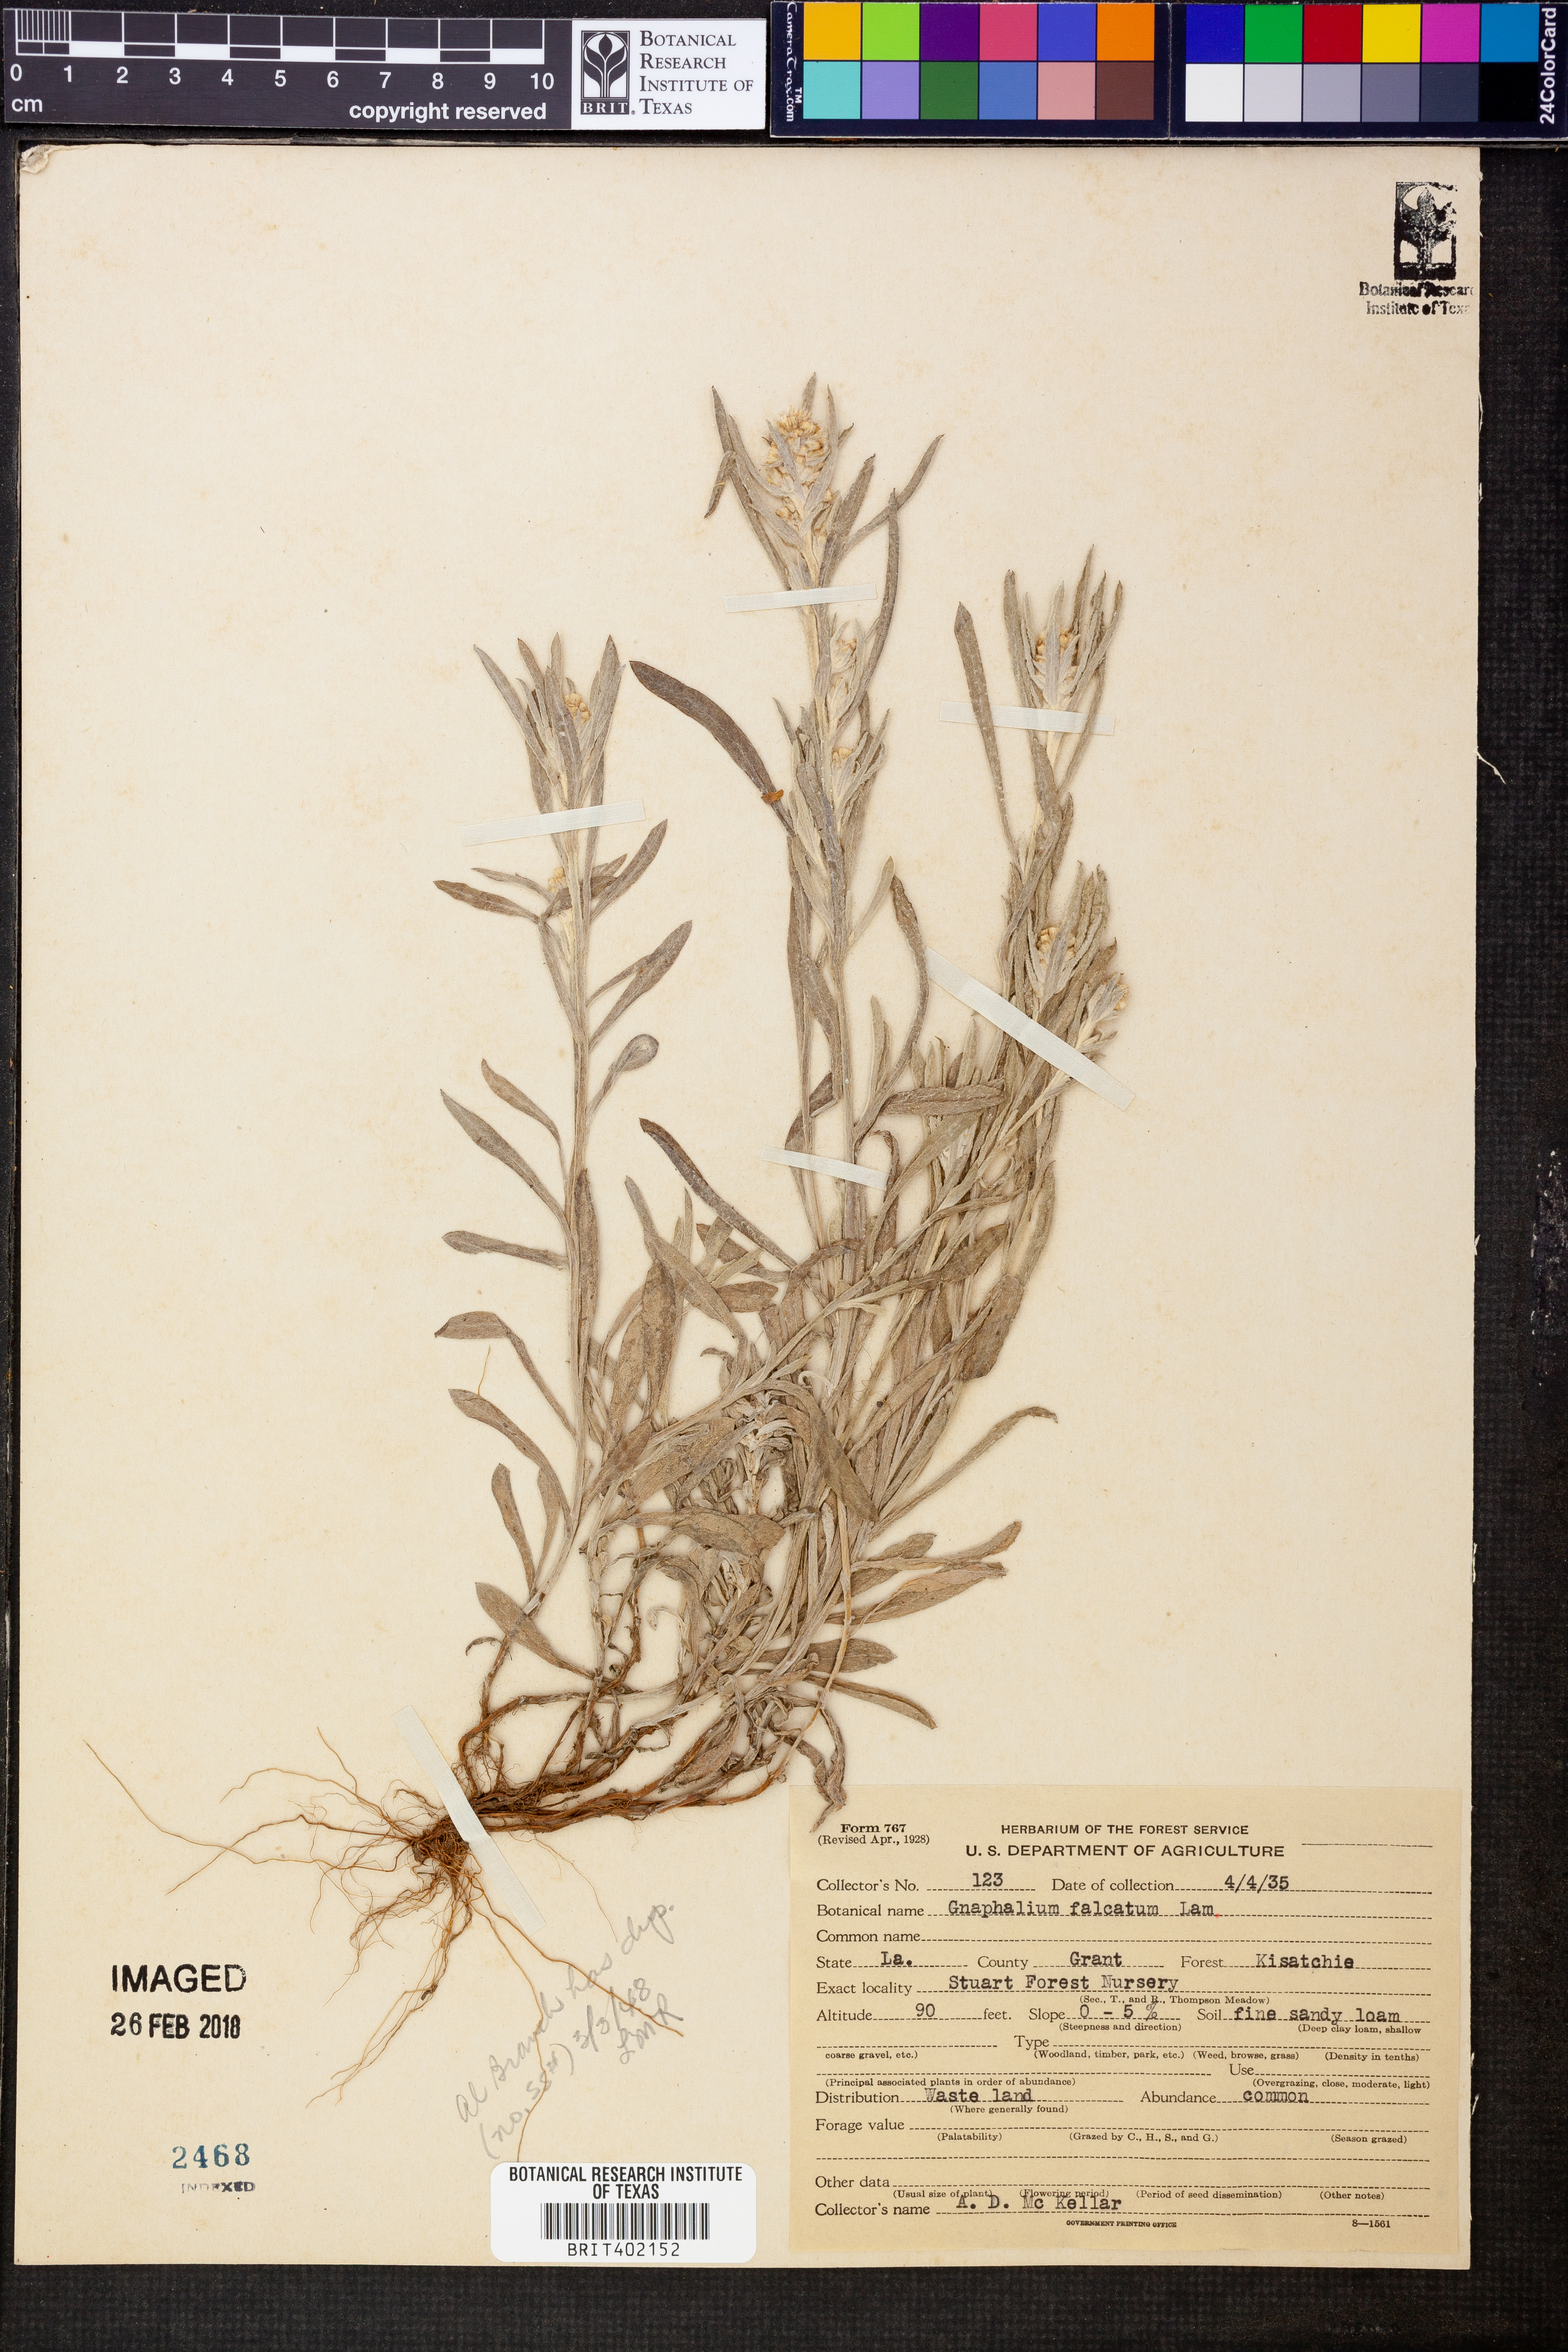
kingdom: Plantae
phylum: Tracheophyta
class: Magnoliopsida
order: Asterales
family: Asteraceae
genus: Gamochaeta
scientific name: Gamochaeta falcata
